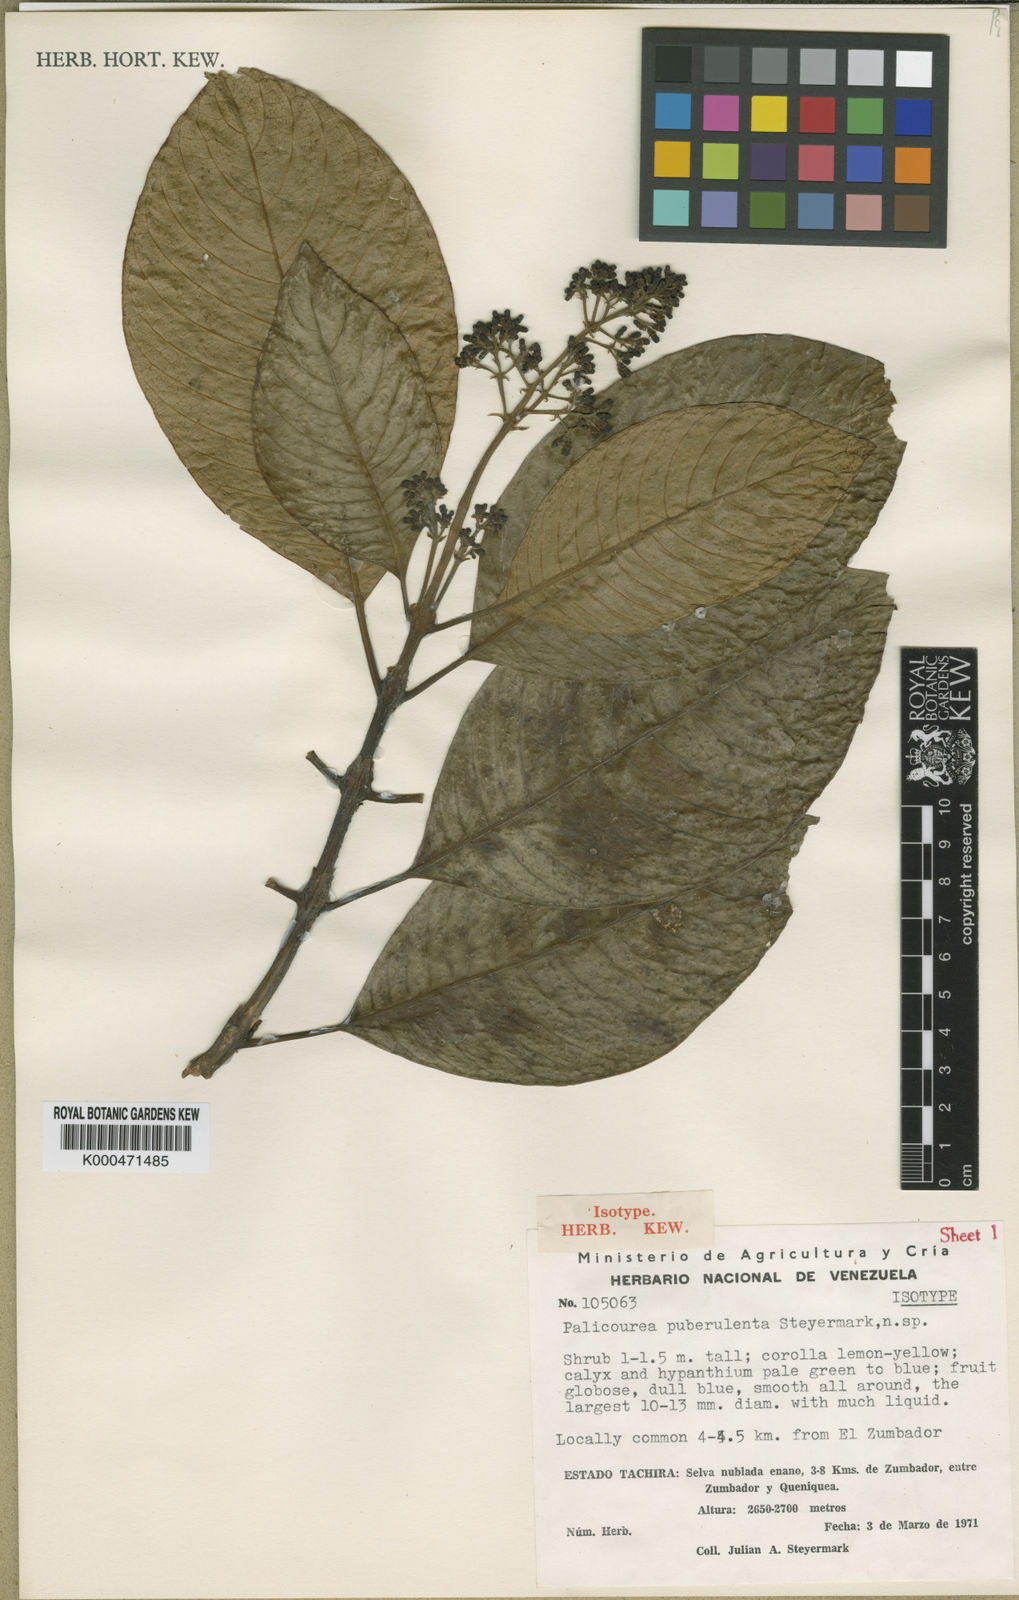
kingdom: Plantae
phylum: Tracheophyta
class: Magnoliopsida
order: Gentianales
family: Rubiaceae
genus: Palicourea
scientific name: Palicourea sulphurea
